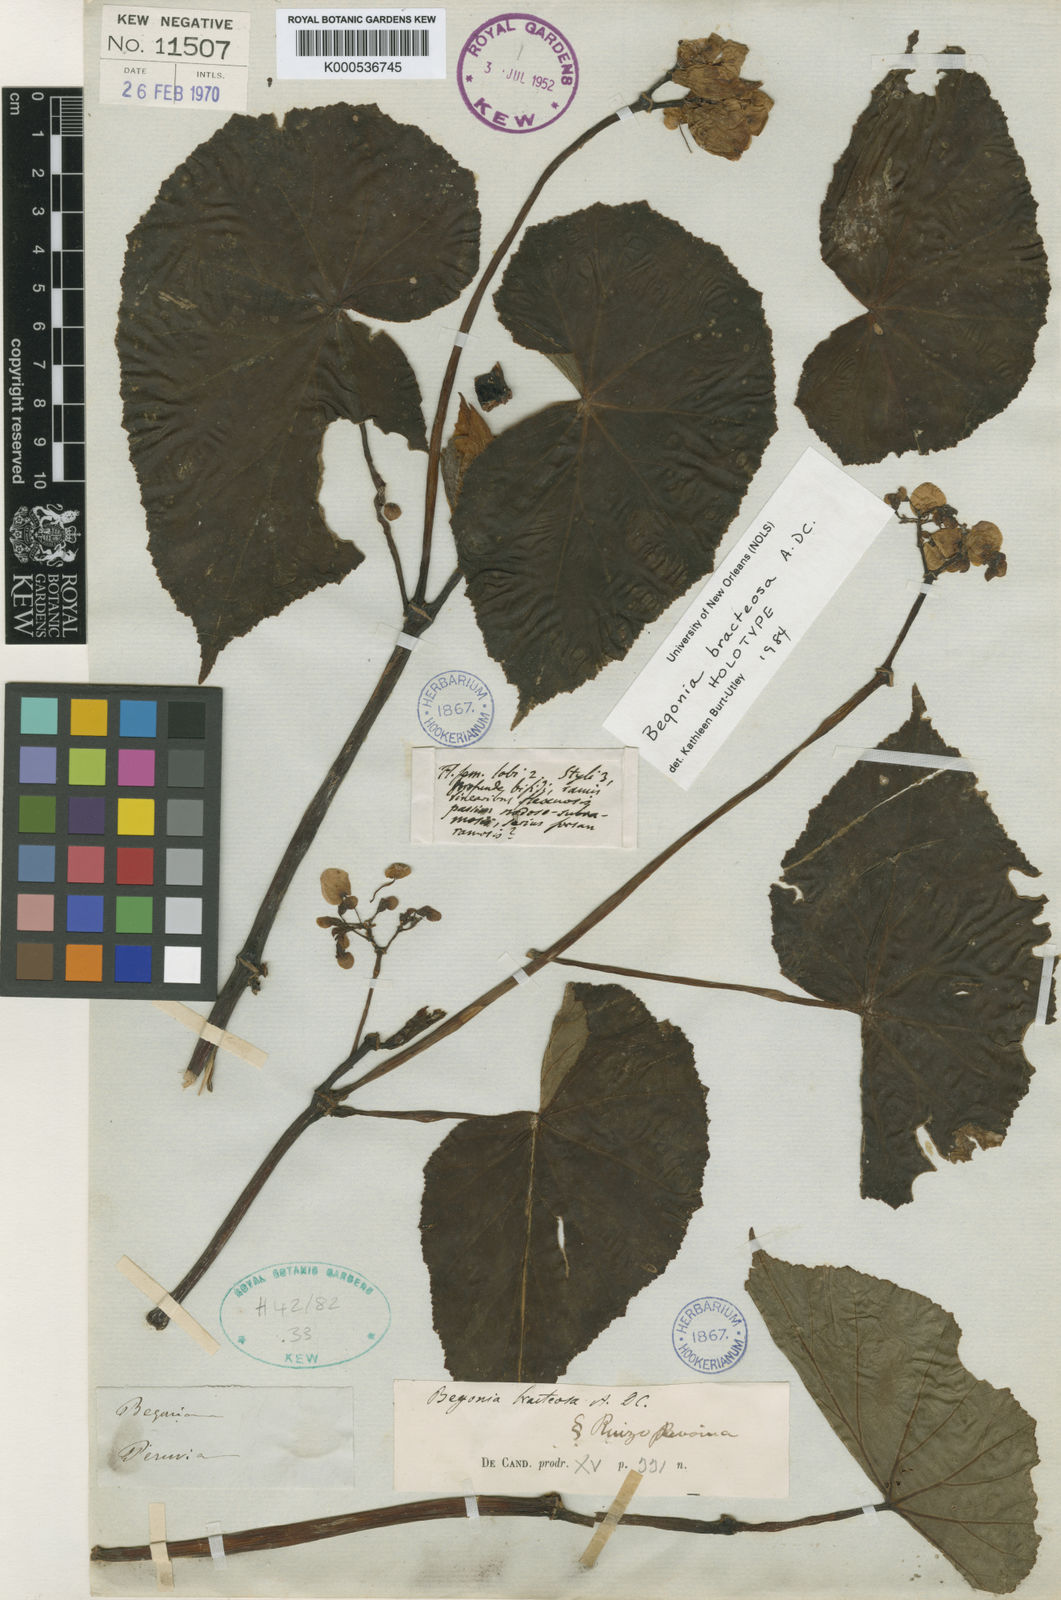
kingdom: Plantae
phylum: Tracheophyta
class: Magnoliopsida
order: Cucurbitales
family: Begoniaceae
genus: Begonia
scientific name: Begonia bracteosa
